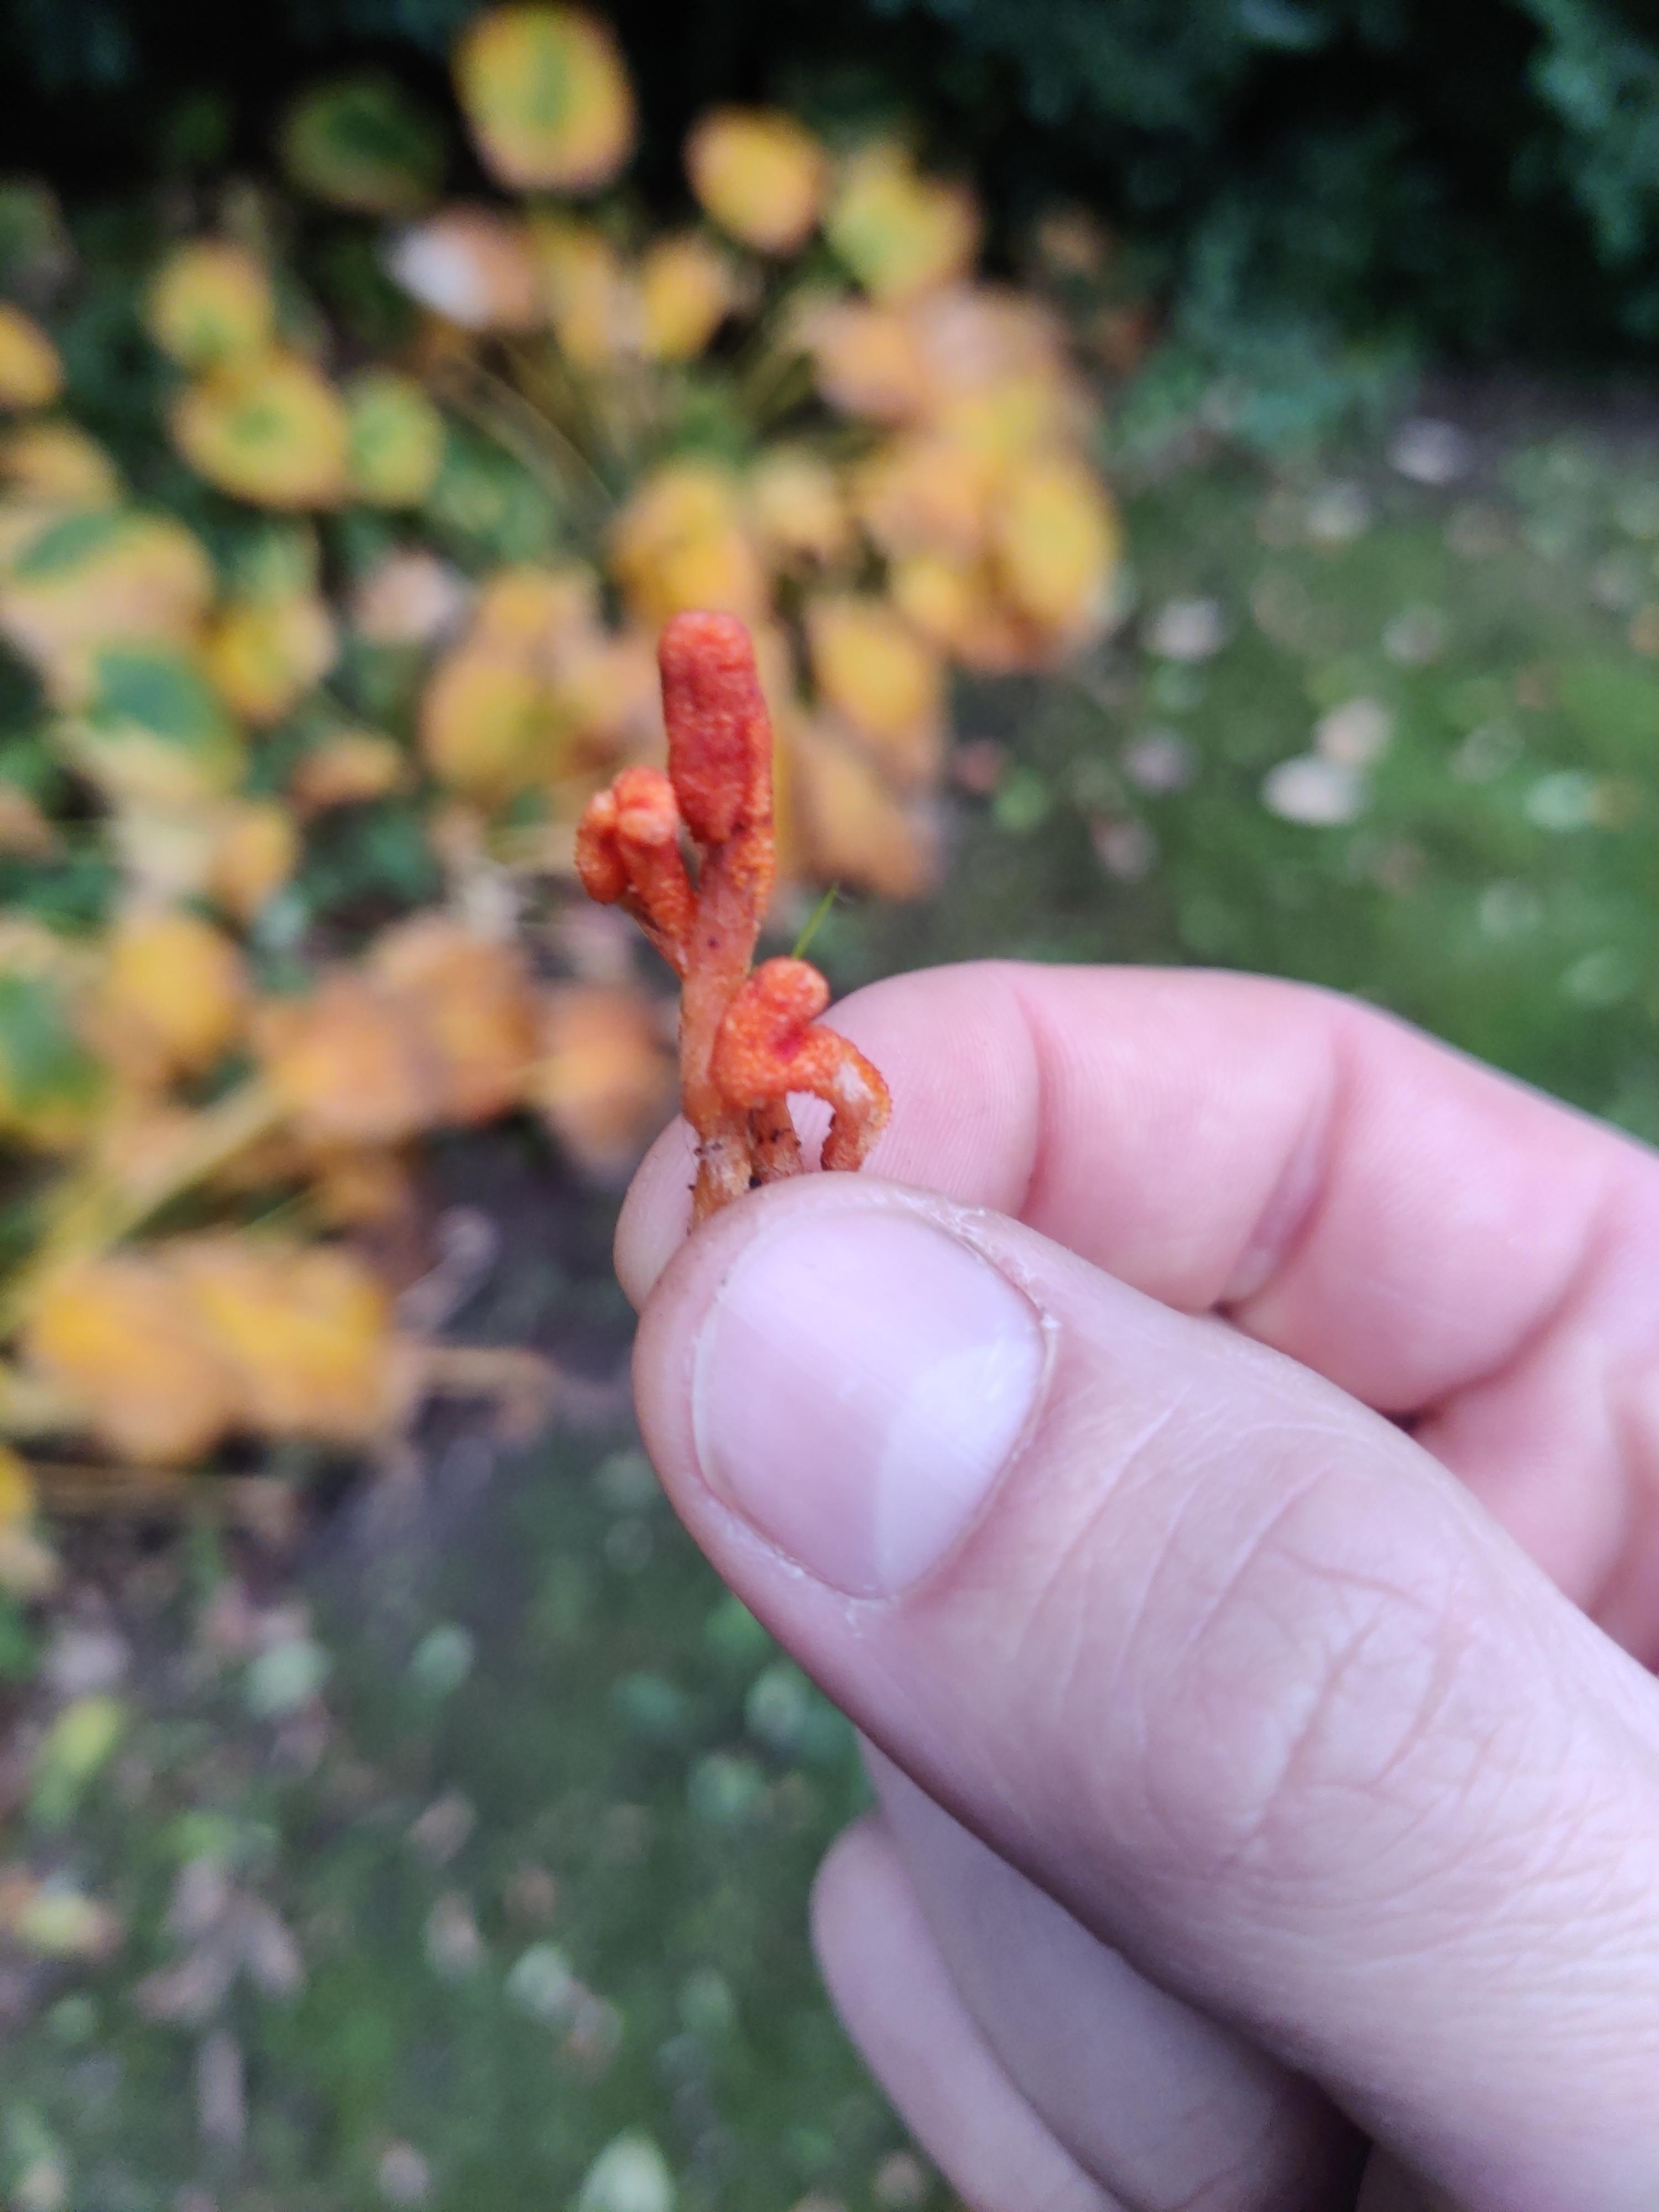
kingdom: Fungi
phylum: Ascomycota
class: Sordariomycetes
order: Hypocreales
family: Cordycipitaceae
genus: Cordyceps
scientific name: Cordyceps militaris
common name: puppe-snyltekølle
